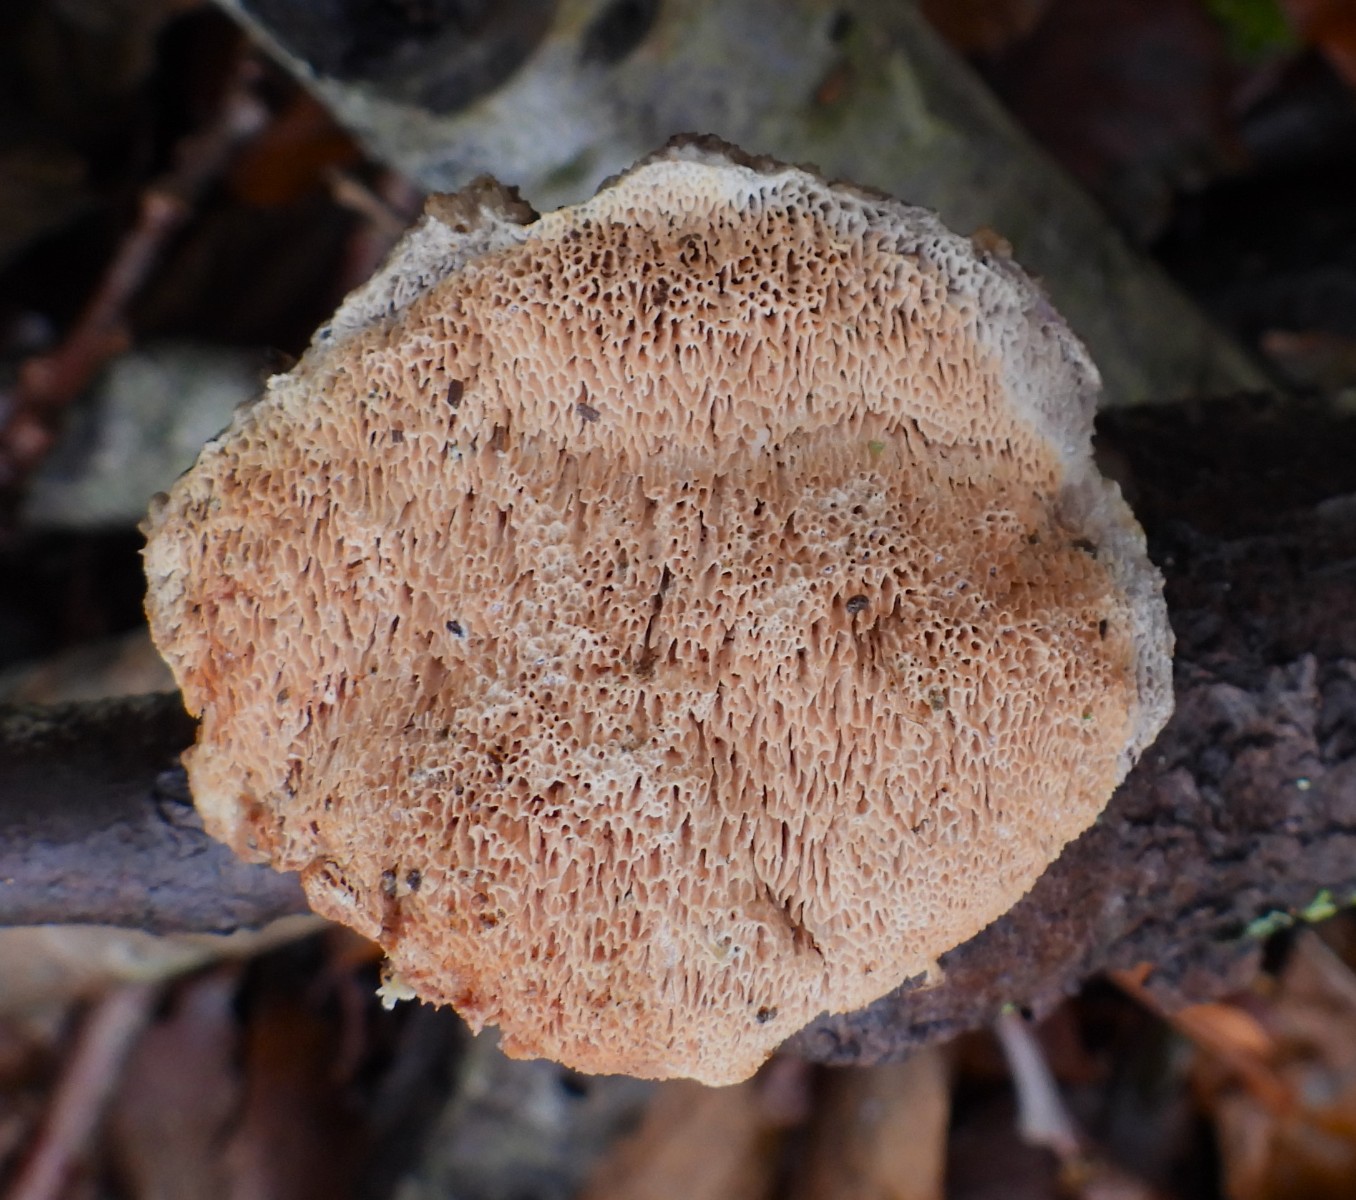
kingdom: Fungi
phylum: Basidiomycota
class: Agaricomycetes
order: Polyporales
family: Phanerochaetaceae
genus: Hapalopilus
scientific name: Hapalopilus rutilans
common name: rødlig okkerporesvamp
